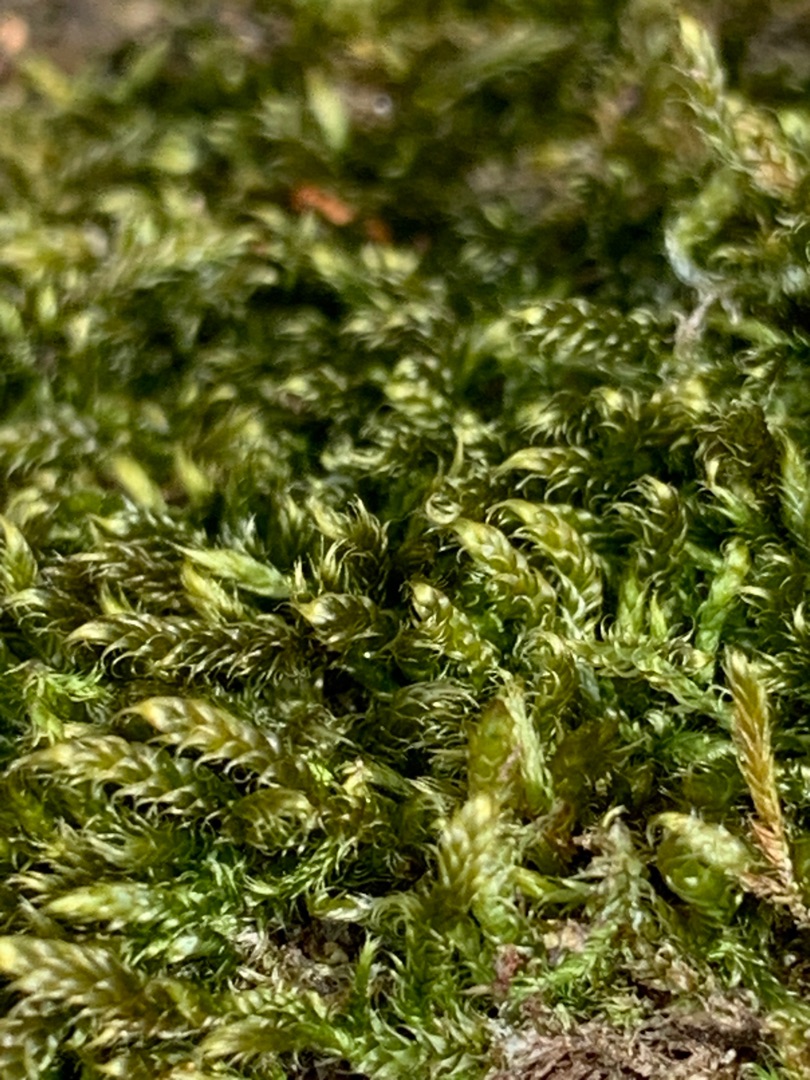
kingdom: Plantae
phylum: Bryophyta
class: Bryopsida
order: Hypnales
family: Hypnaceae
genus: Hypnum
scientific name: Hypnum cupressiforme
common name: Almindelig cypresmos
